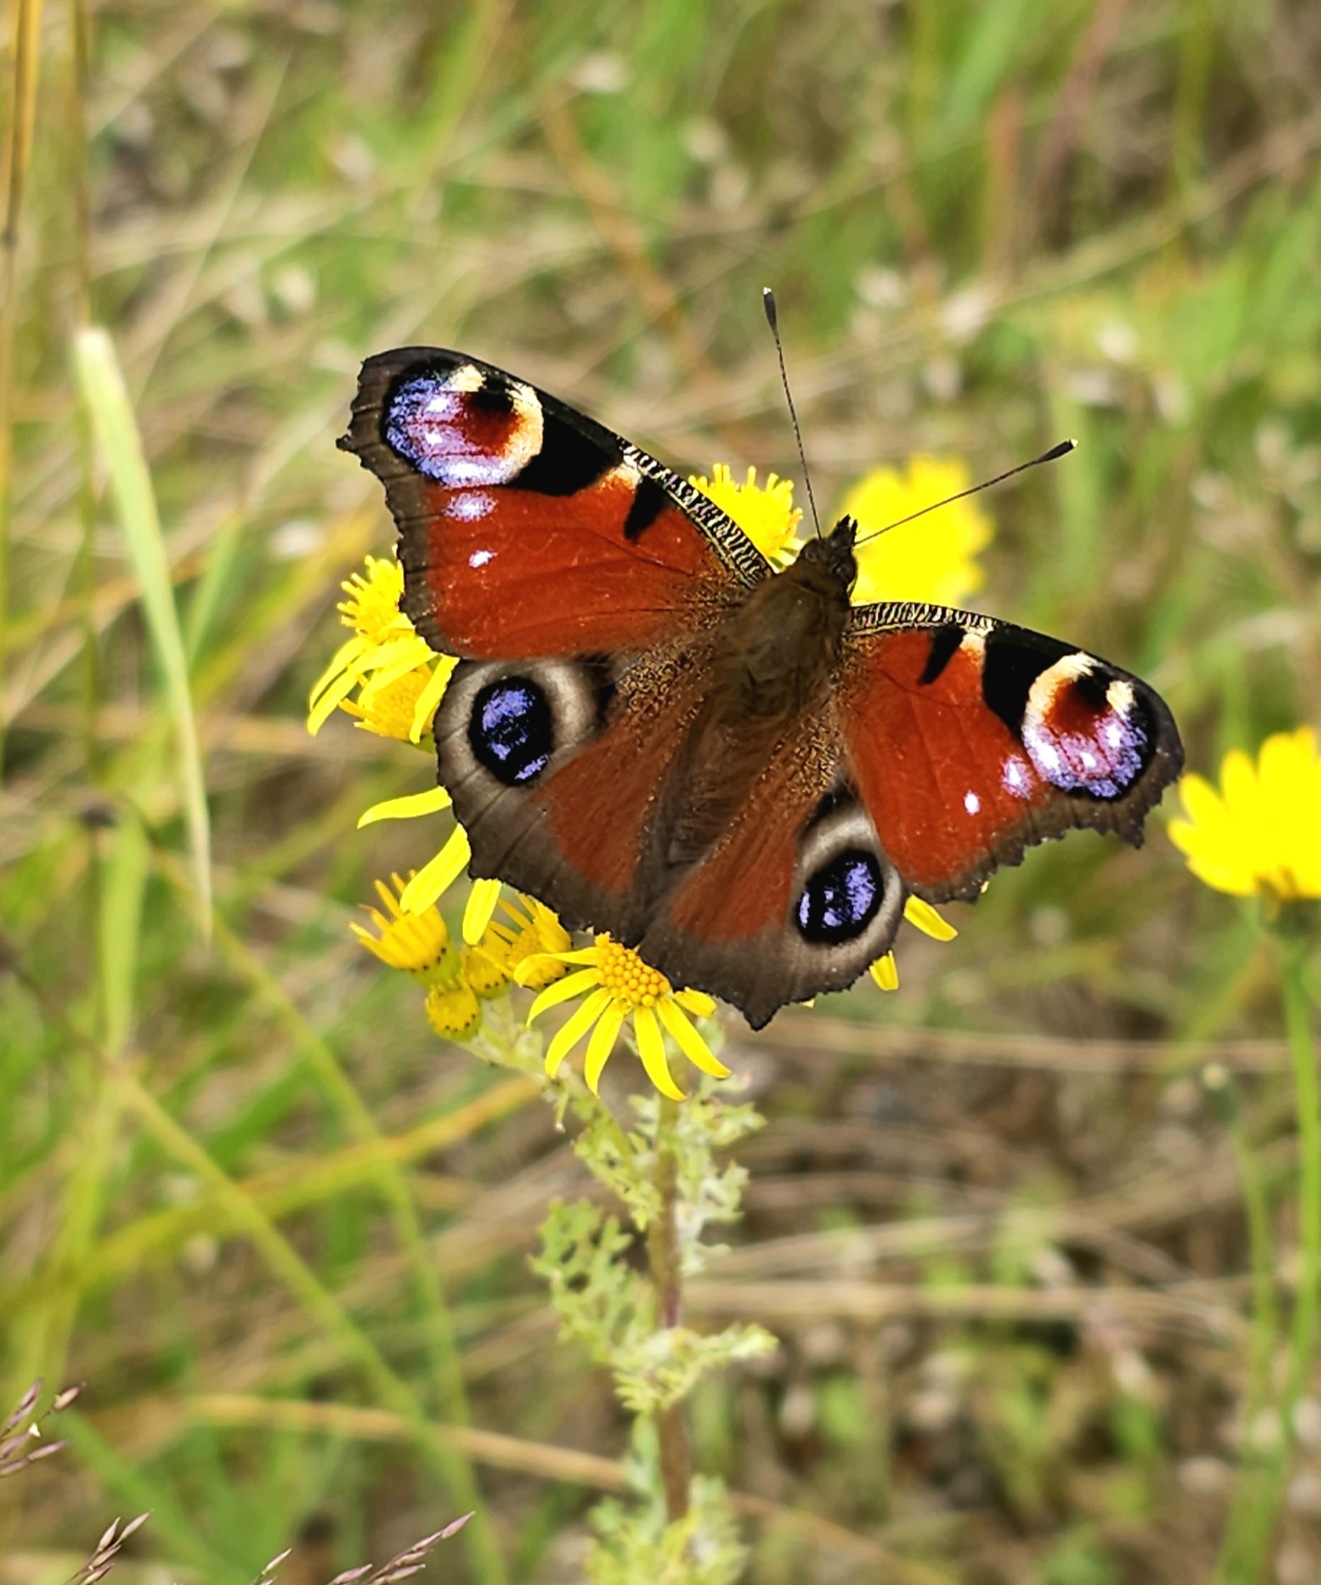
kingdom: Animalia
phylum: Arthropoda
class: Insecta
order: Lepidoptera
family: Nymphalidae
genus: Aglais
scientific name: Aglais io
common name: Dagpåfugleøje
